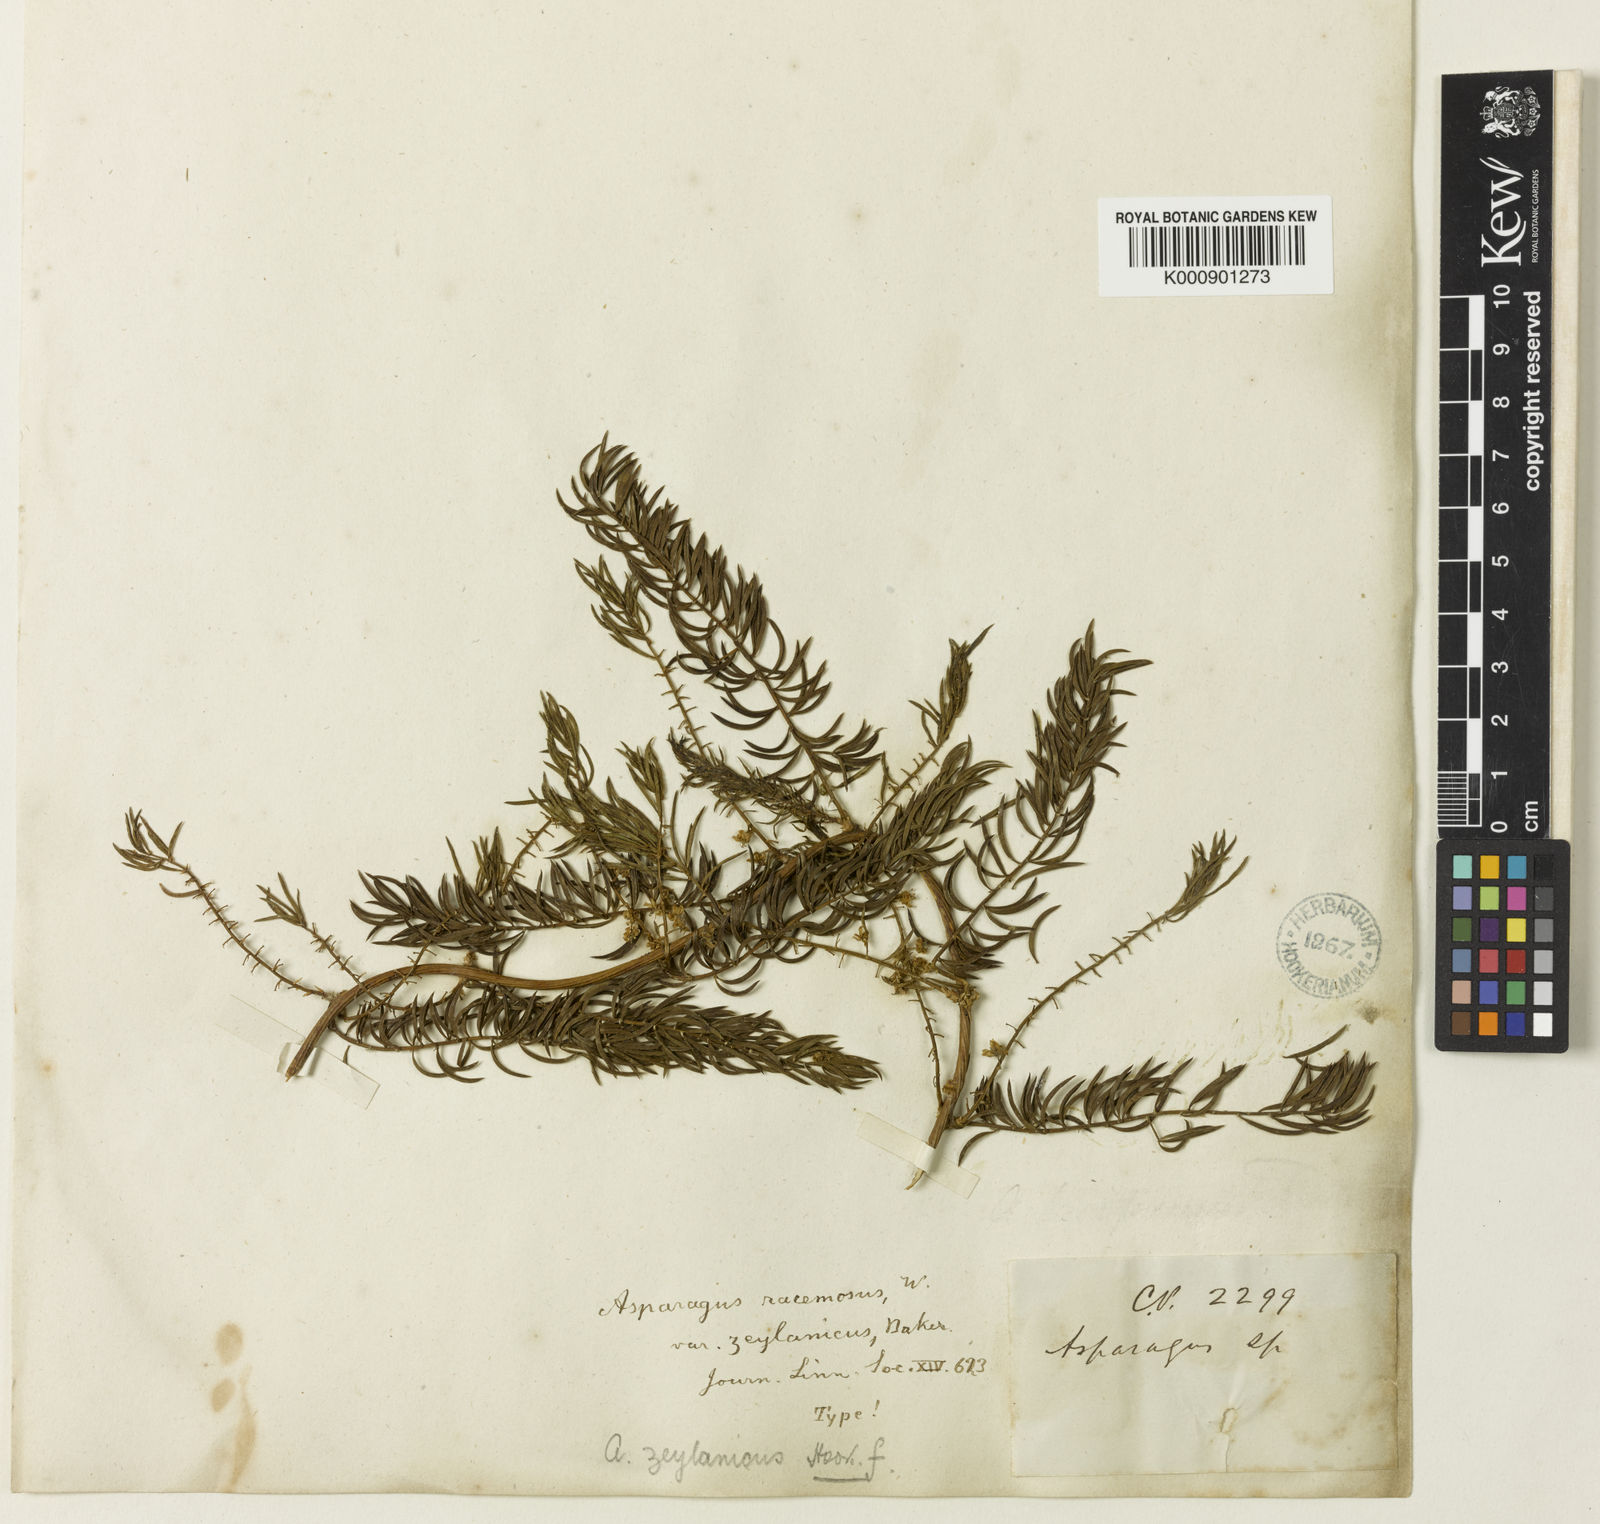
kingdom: Plantae
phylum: Tracheophyta
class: Liliopsida
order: Asparagales
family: Asparagaceae
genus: Asparagus
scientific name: Asparagus racemosus
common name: Asparagus-fern
